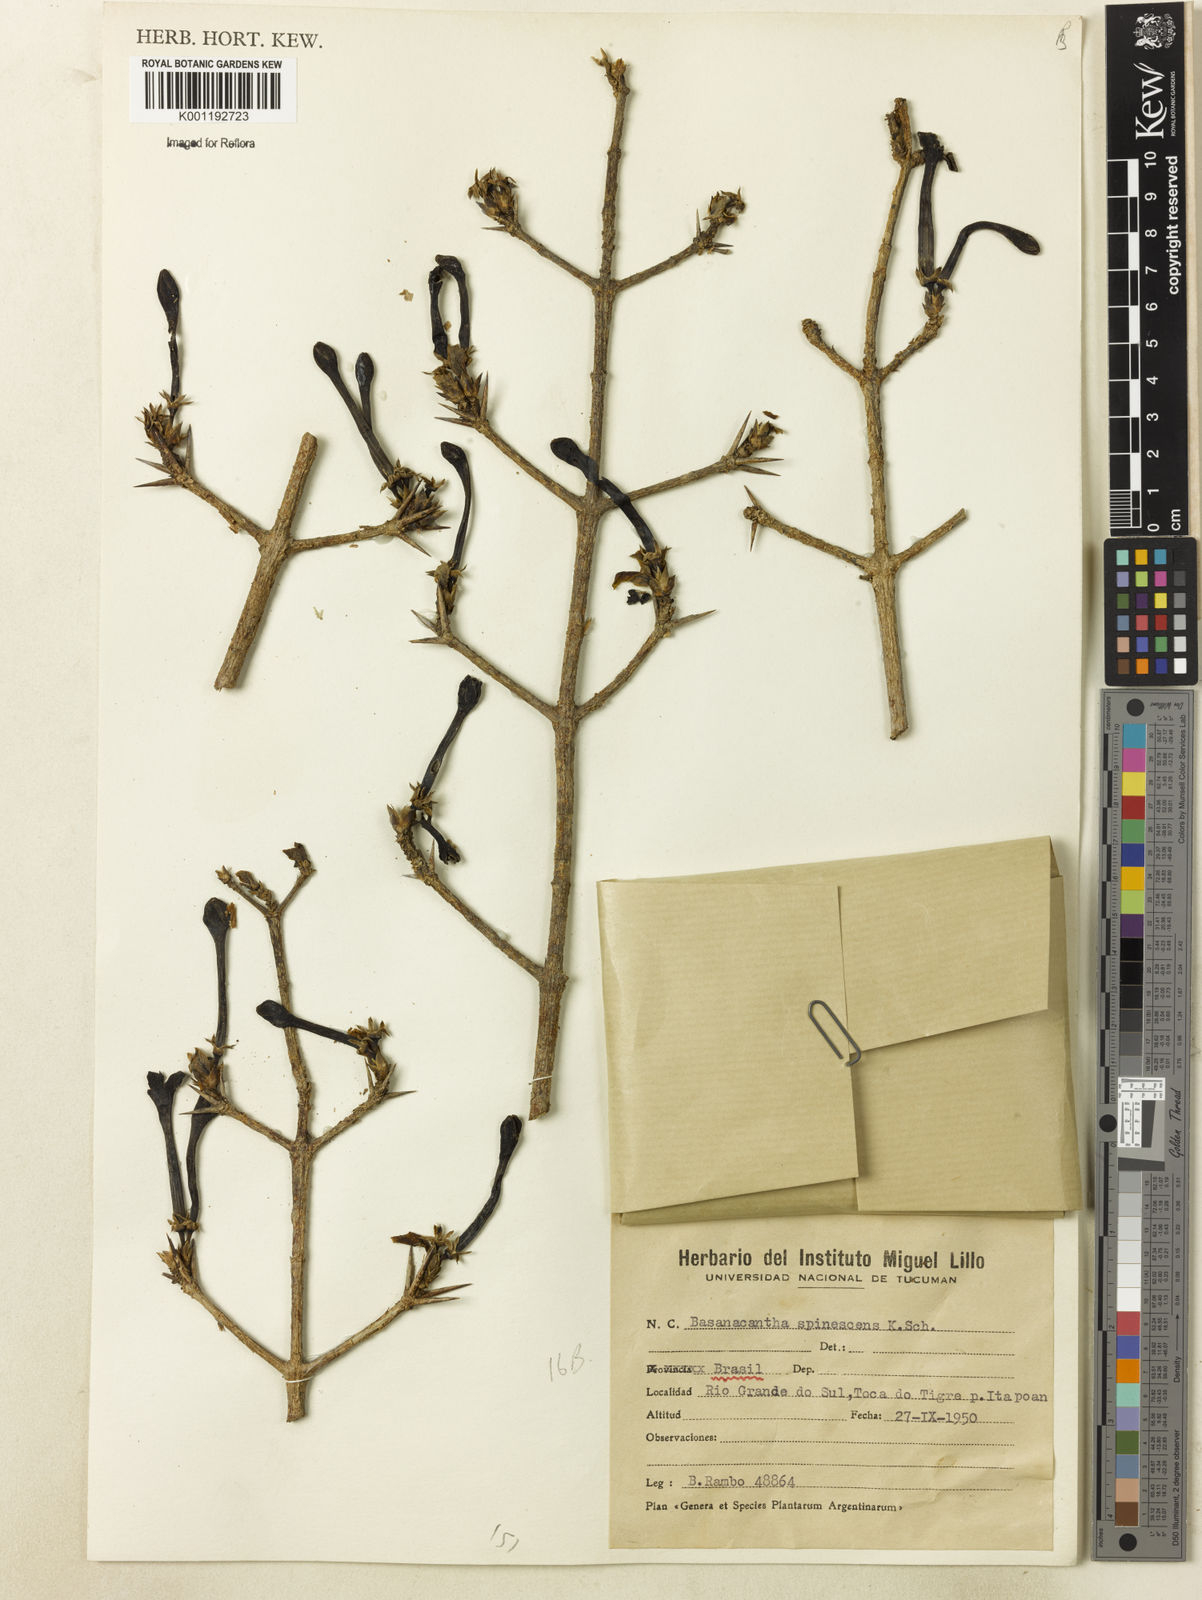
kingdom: Plantae
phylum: Tracheophyta
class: Magnoliopsida
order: Gentianales
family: Rubiaceae
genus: Randia
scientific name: Randia
